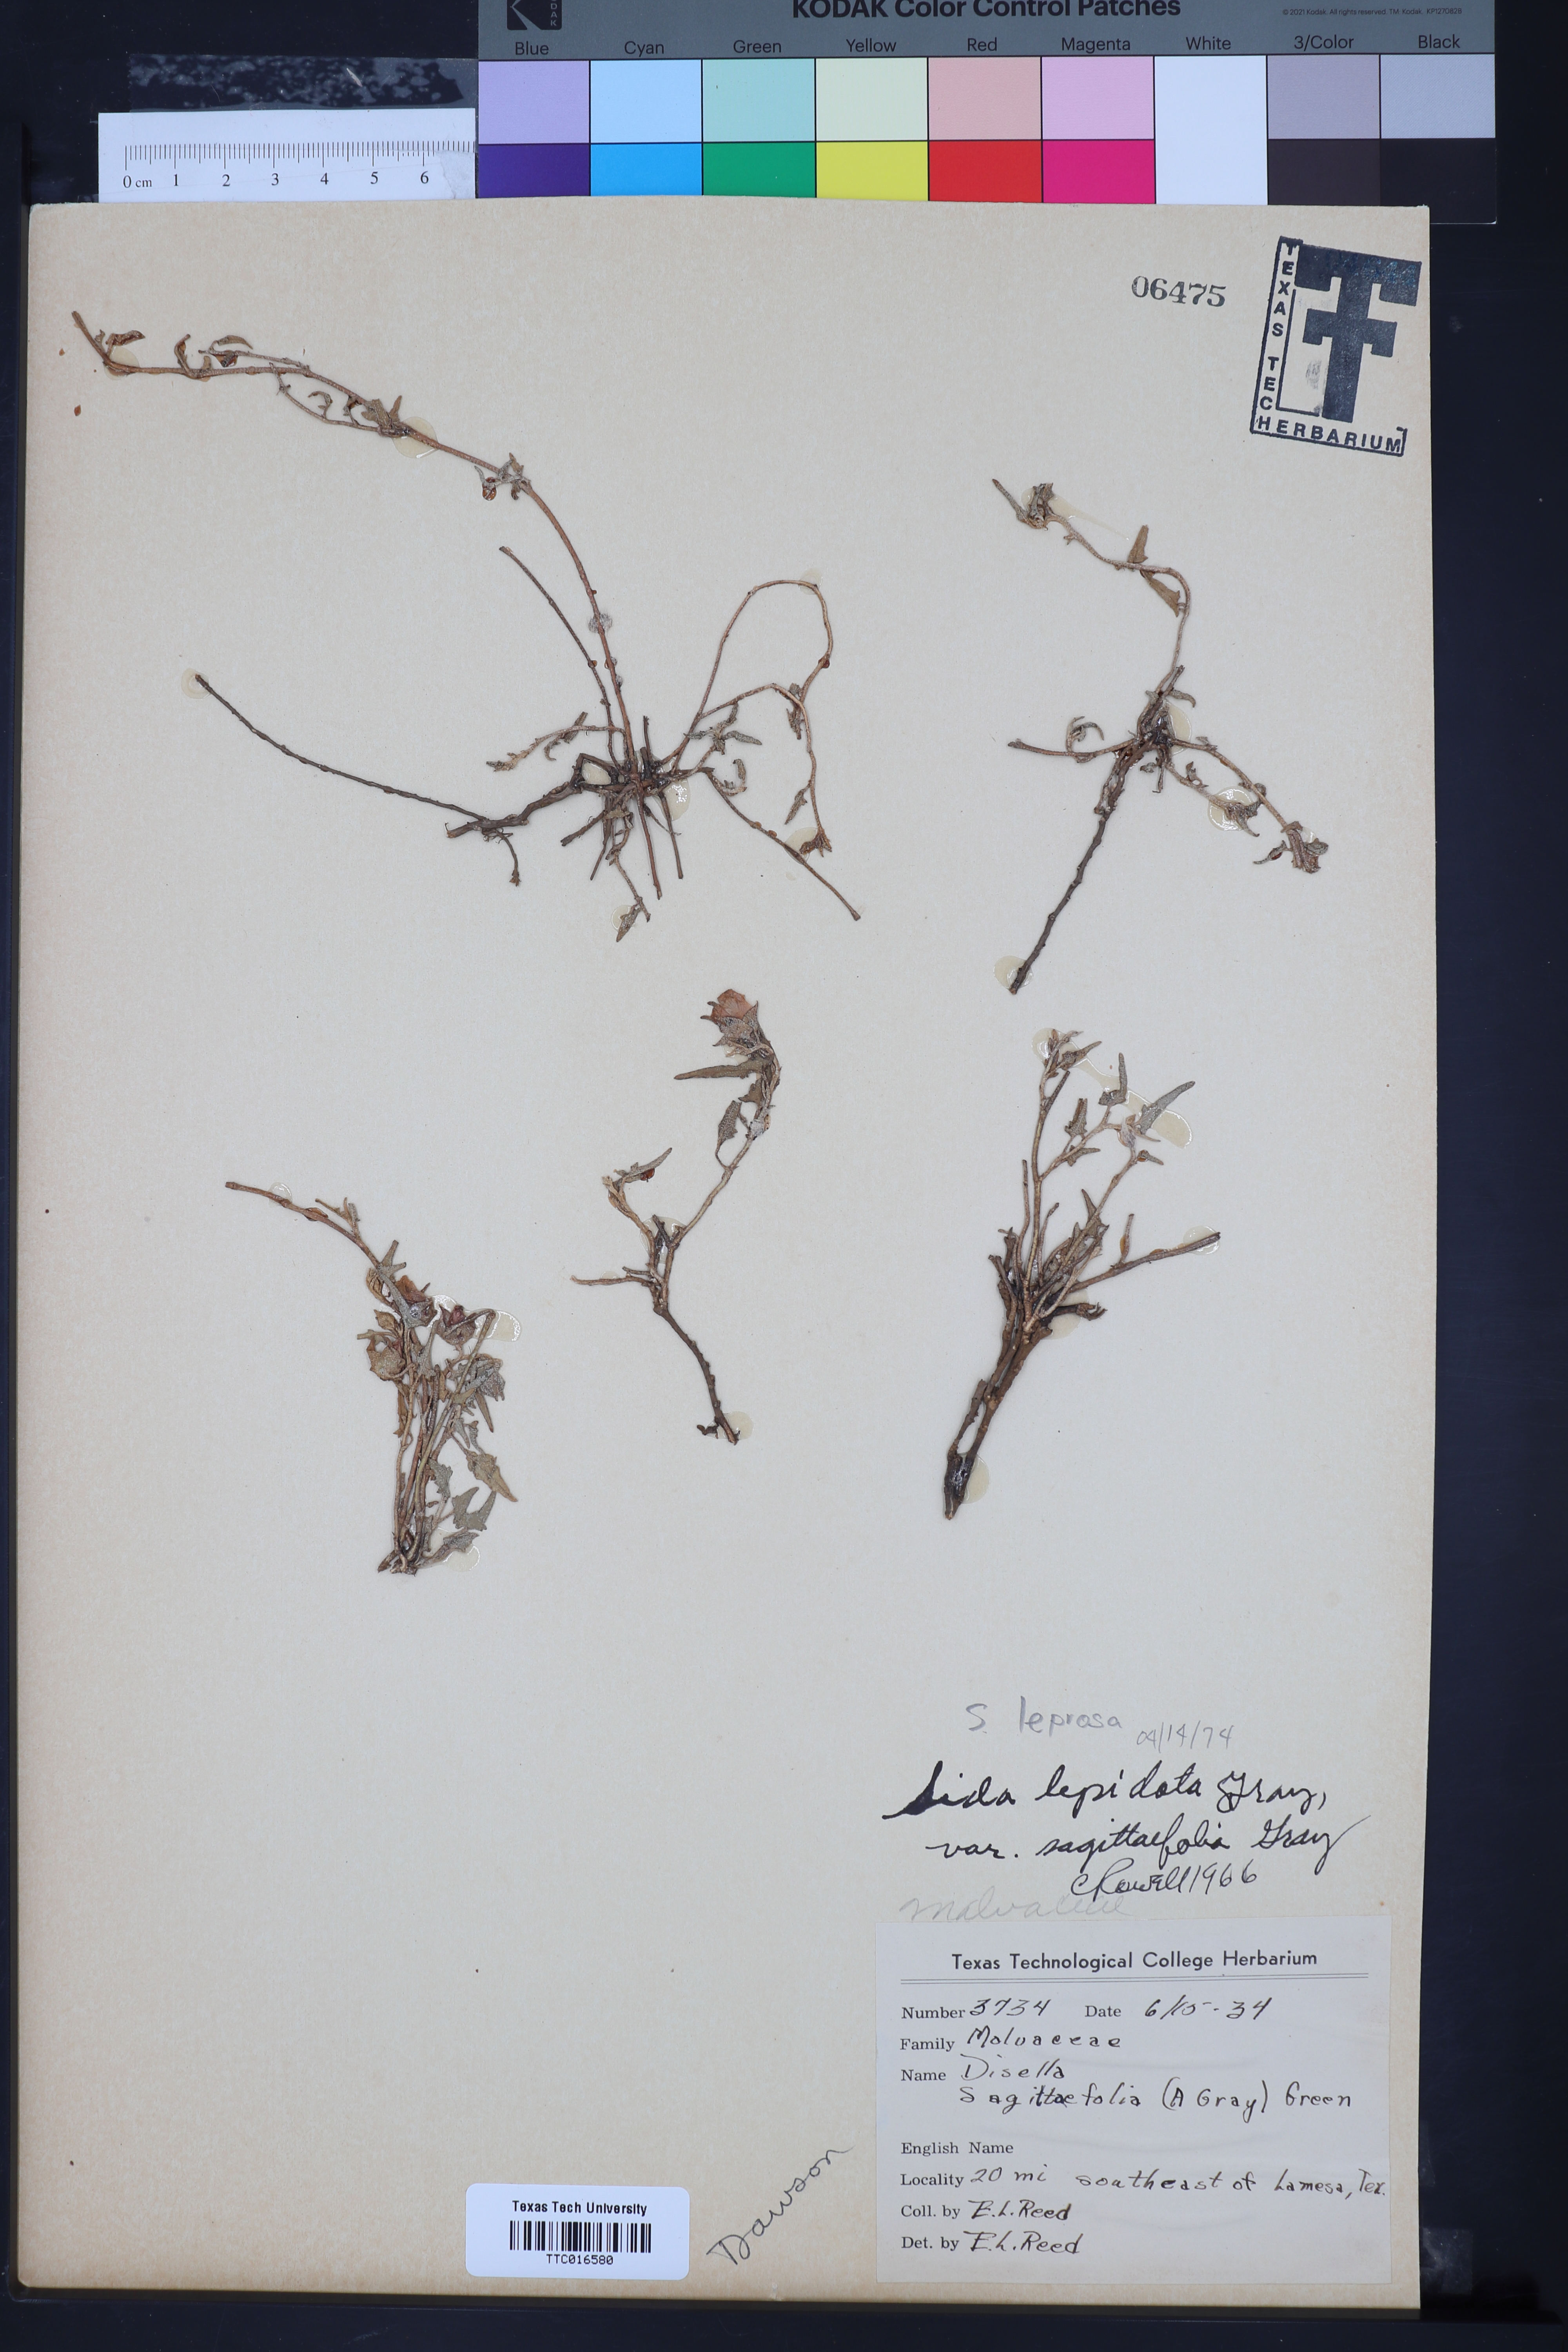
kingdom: Plantae
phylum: Tracheophyta
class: Magnoliopsida
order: Malvales
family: Malvaceae
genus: Malvella
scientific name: Malvella leprosa
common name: Alkali-mallow
